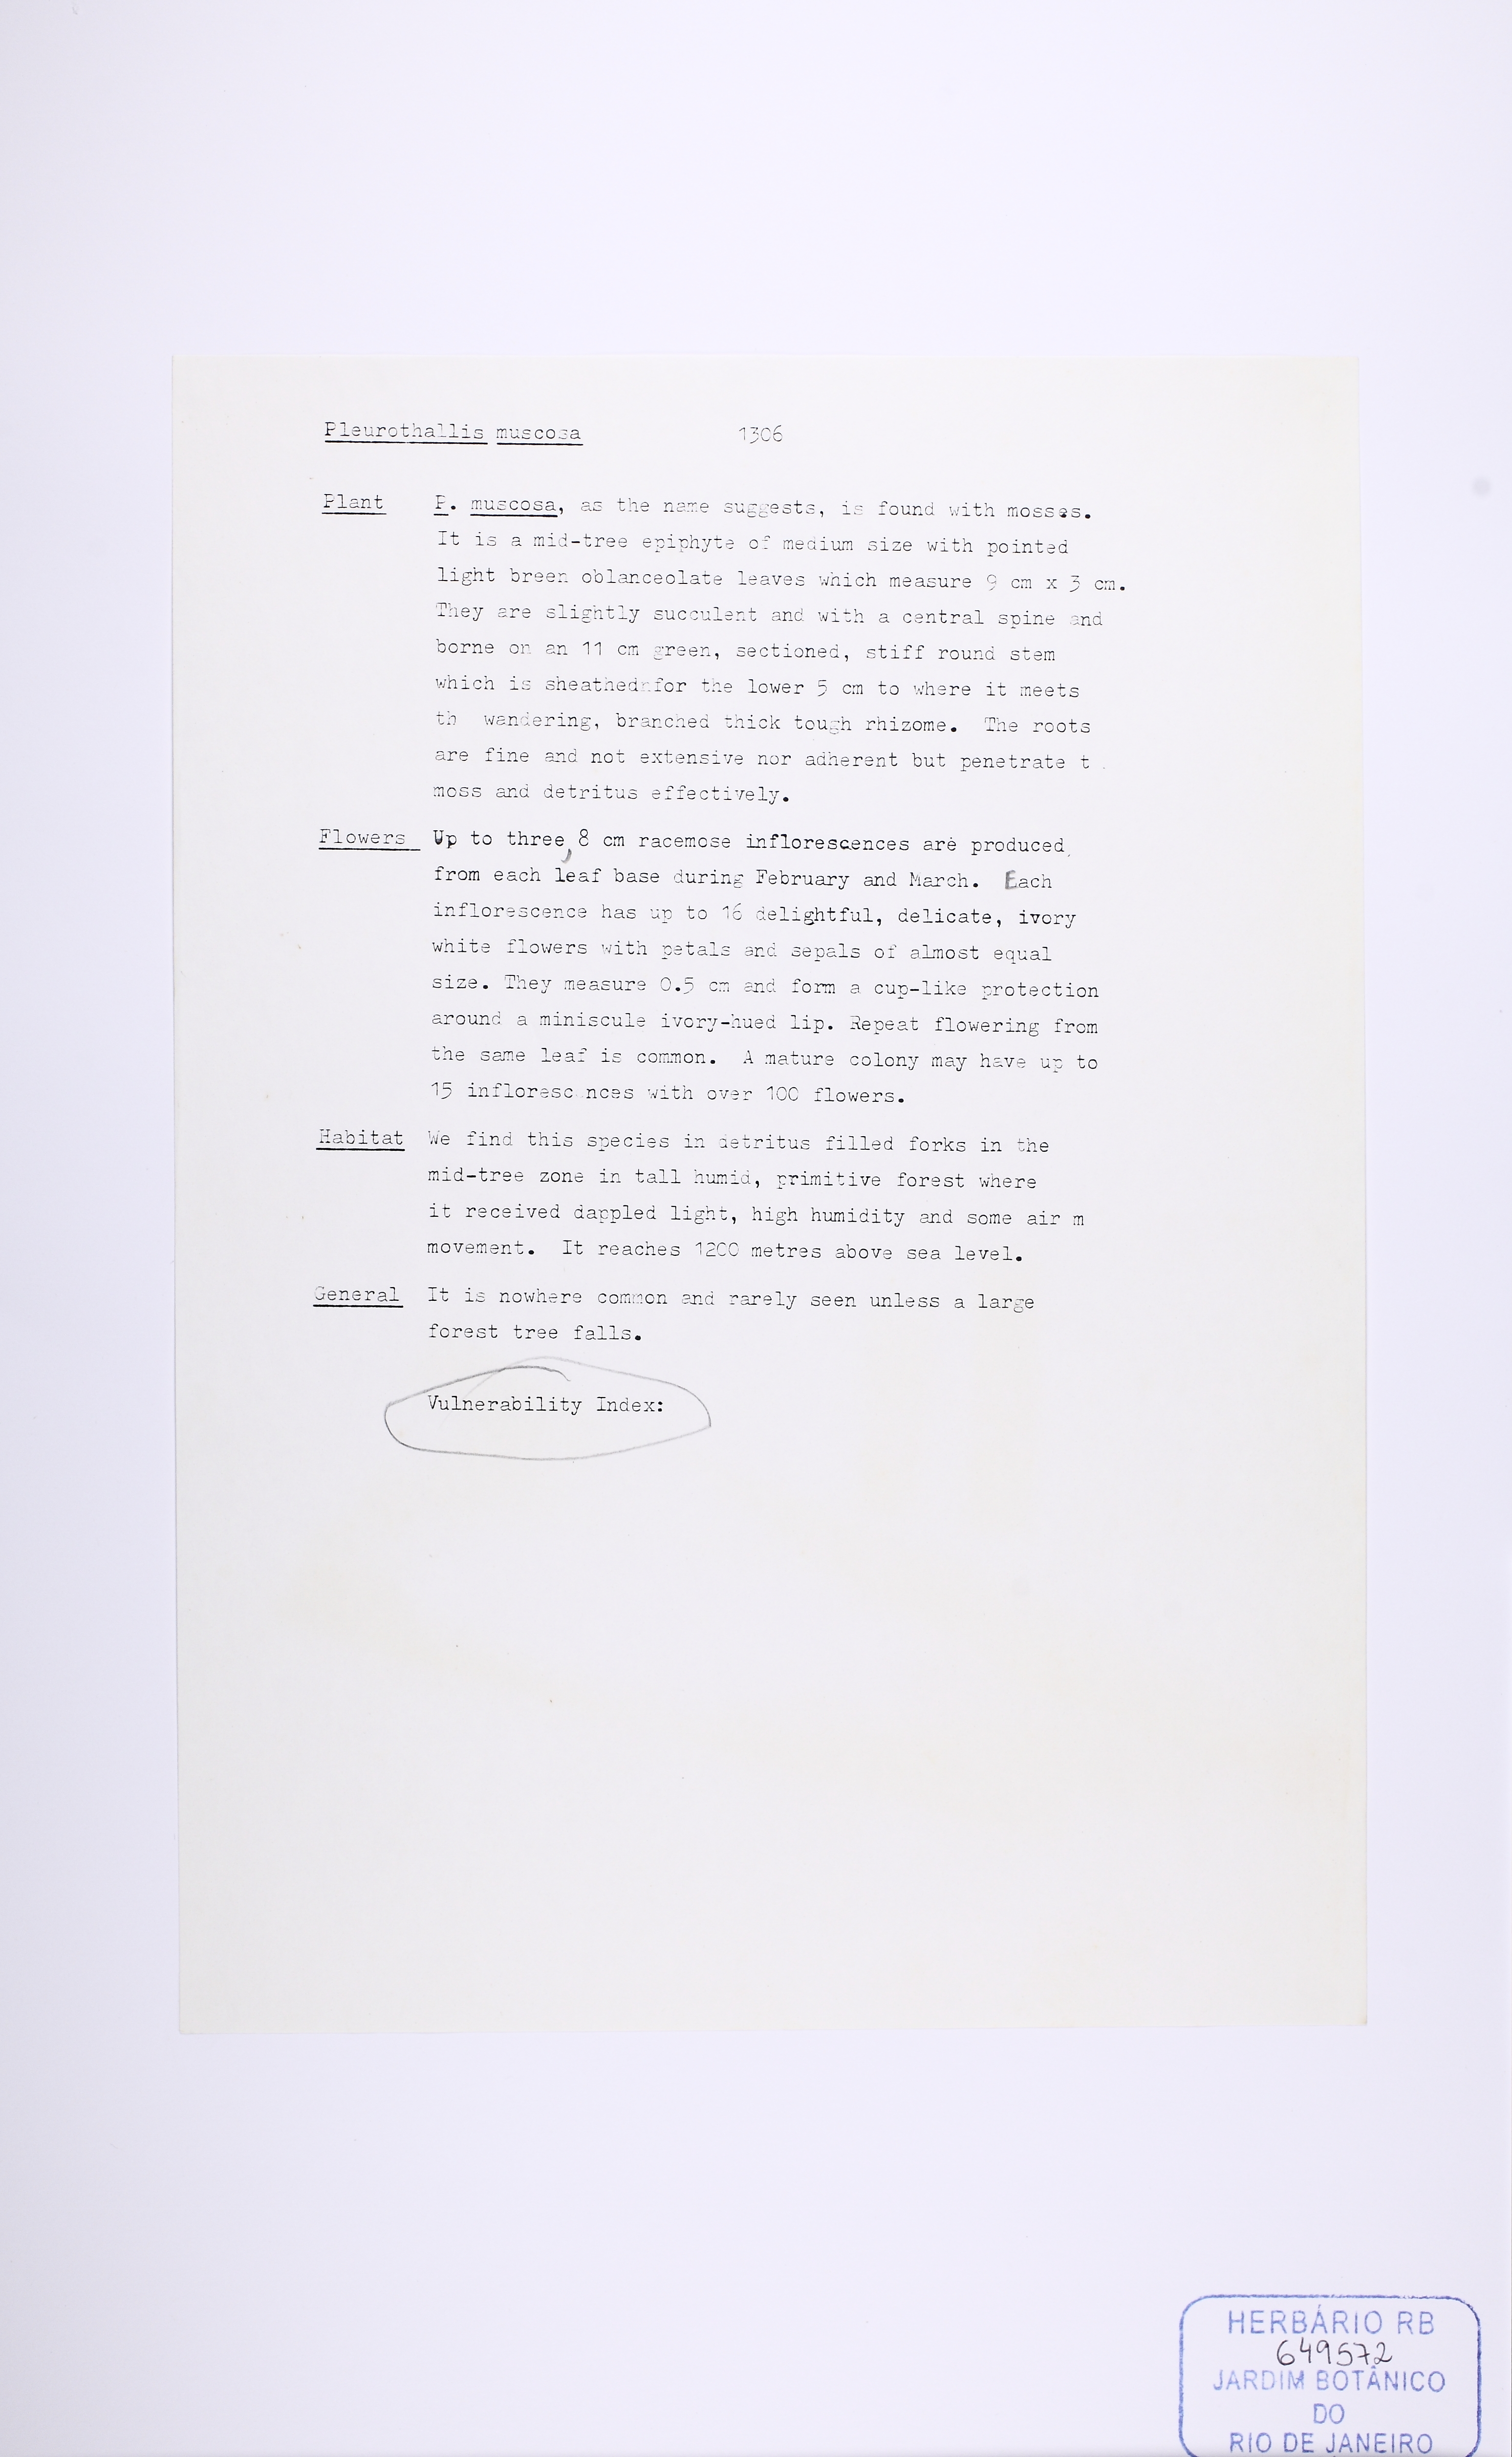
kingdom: Plantae
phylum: Tracheophyta
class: Liliopsida
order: Asparagales
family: Orchidaceae
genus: Acianthera
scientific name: Acianthera muscosa
